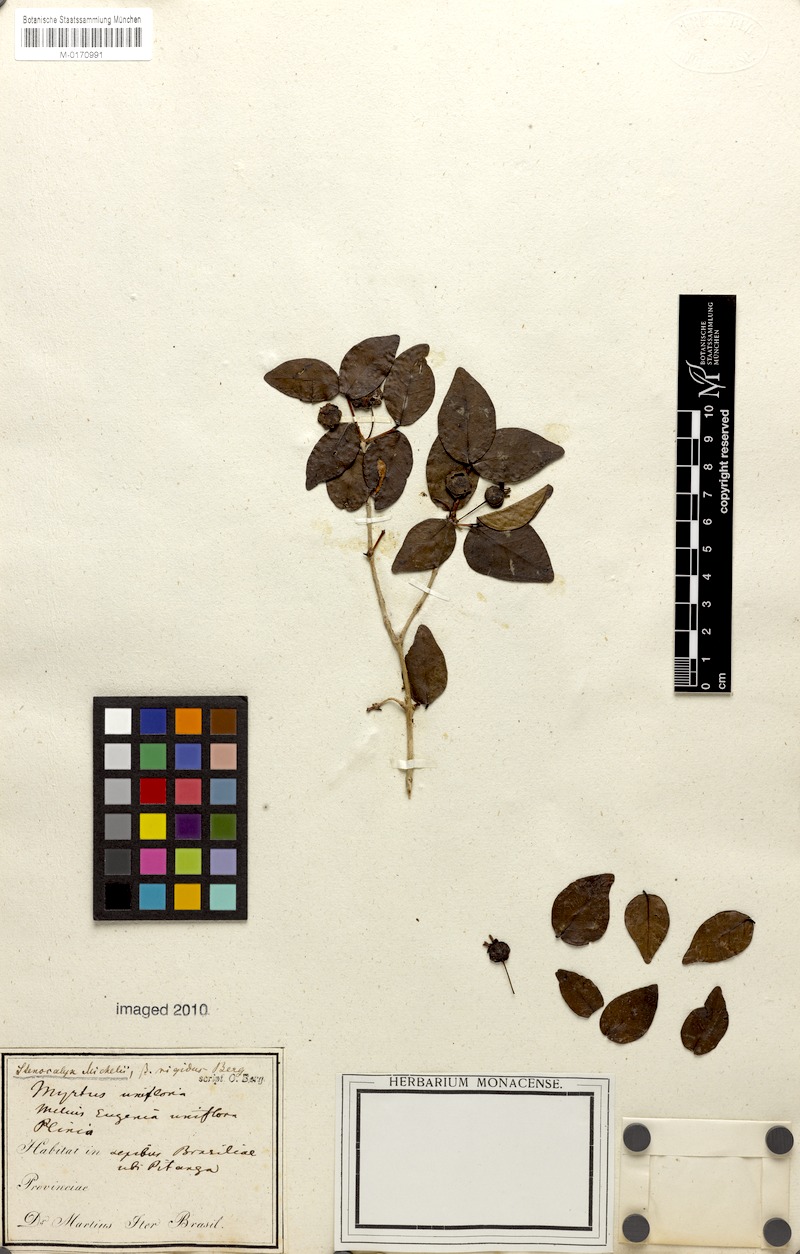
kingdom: Plantae
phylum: Tracheophyta
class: Magnoliopsida
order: Myrtales
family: Myrtaceae
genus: Eugenia
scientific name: Eugenia uniflora
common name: Surinam cherry
